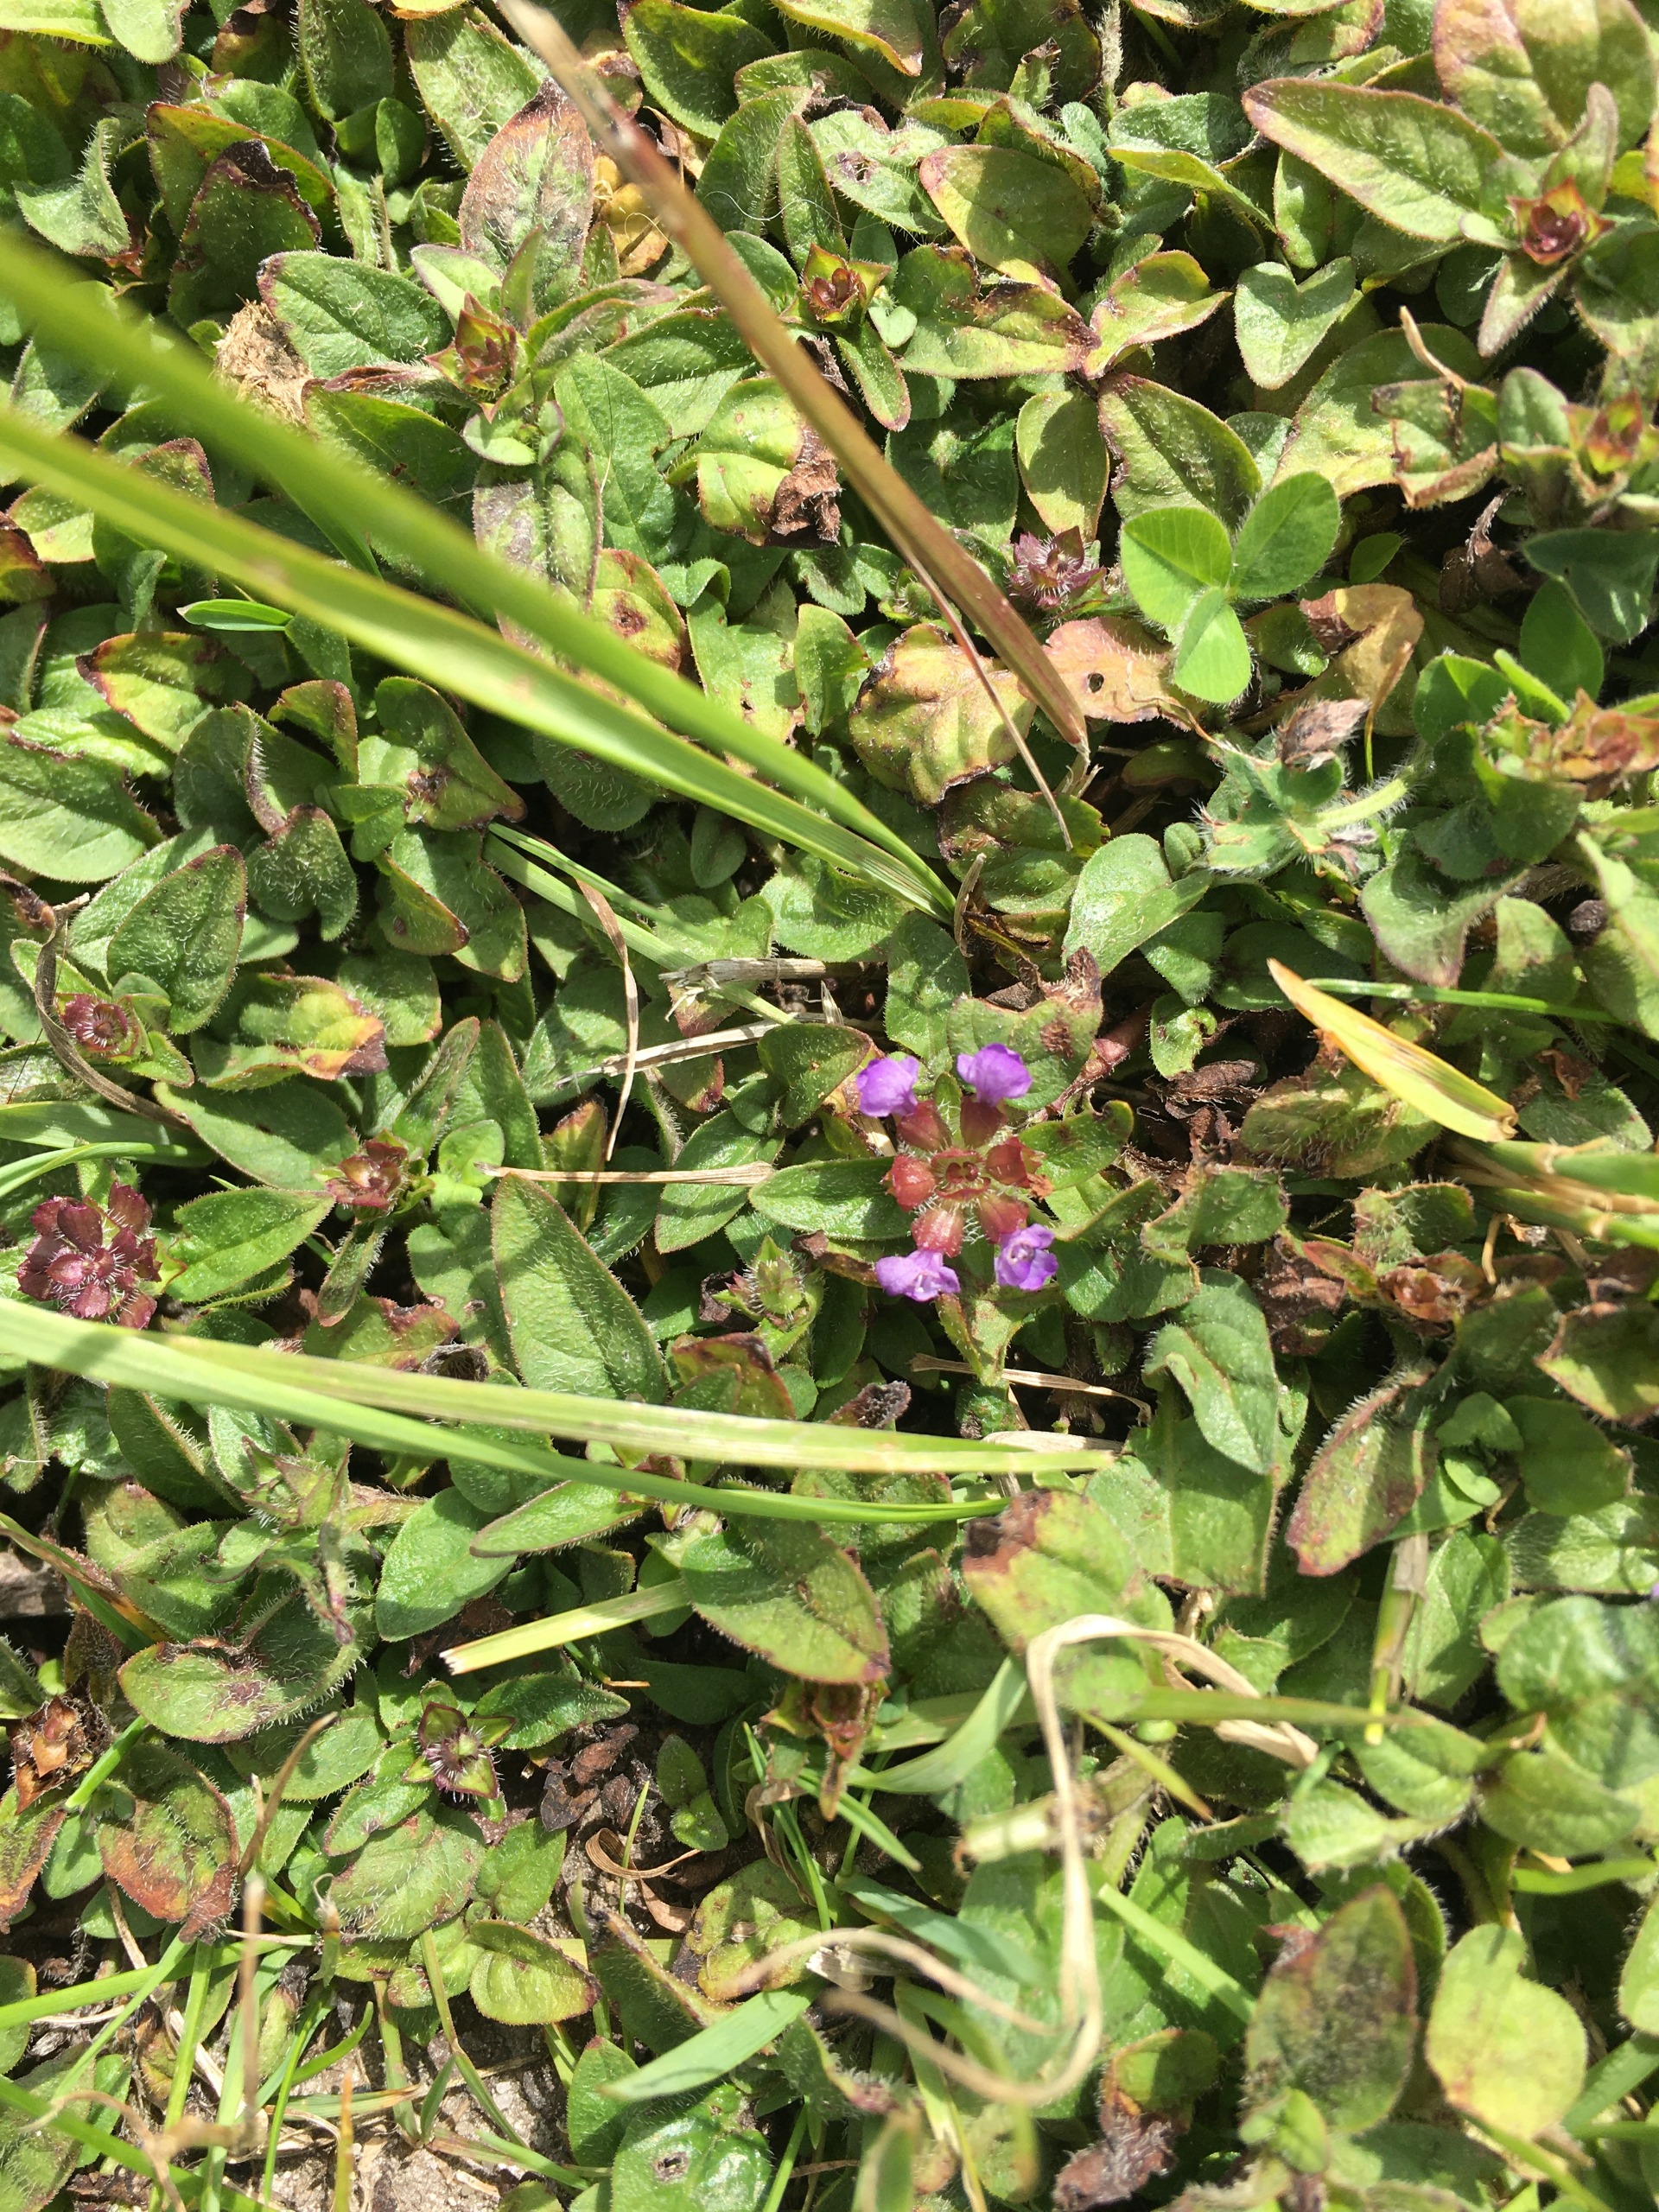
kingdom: Plantae
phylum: Tracheophyta
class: Magnoliopsida
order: Lamiales
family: Lamiaceae
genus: Prunella
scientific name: Prunella vulgaris
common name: Almindelig brunelle
